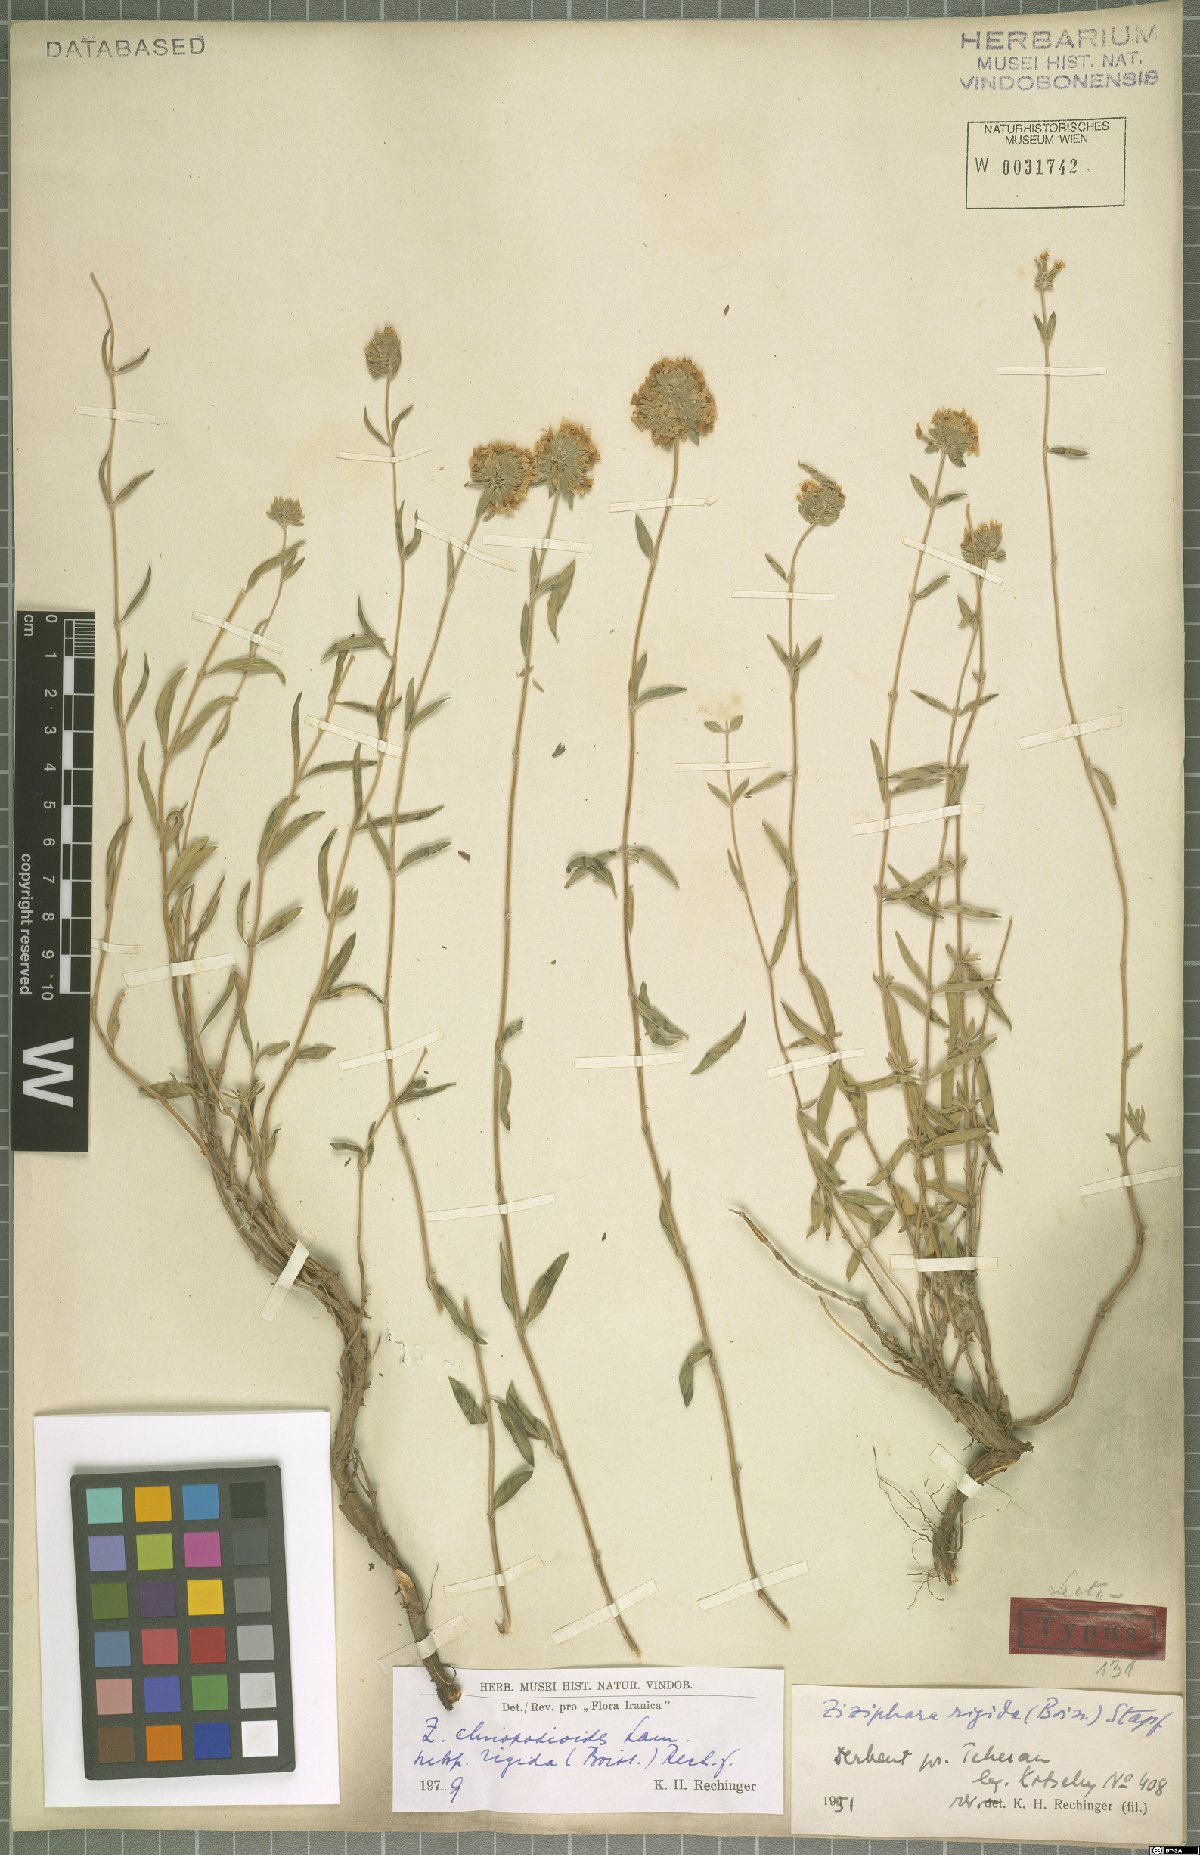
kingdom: Plantae
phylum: Tracheophyta
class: Magnoliopsida
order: Lamiales
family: Lamiaceae
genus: Ziziphora
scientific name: Ziziphora clinopodioides
